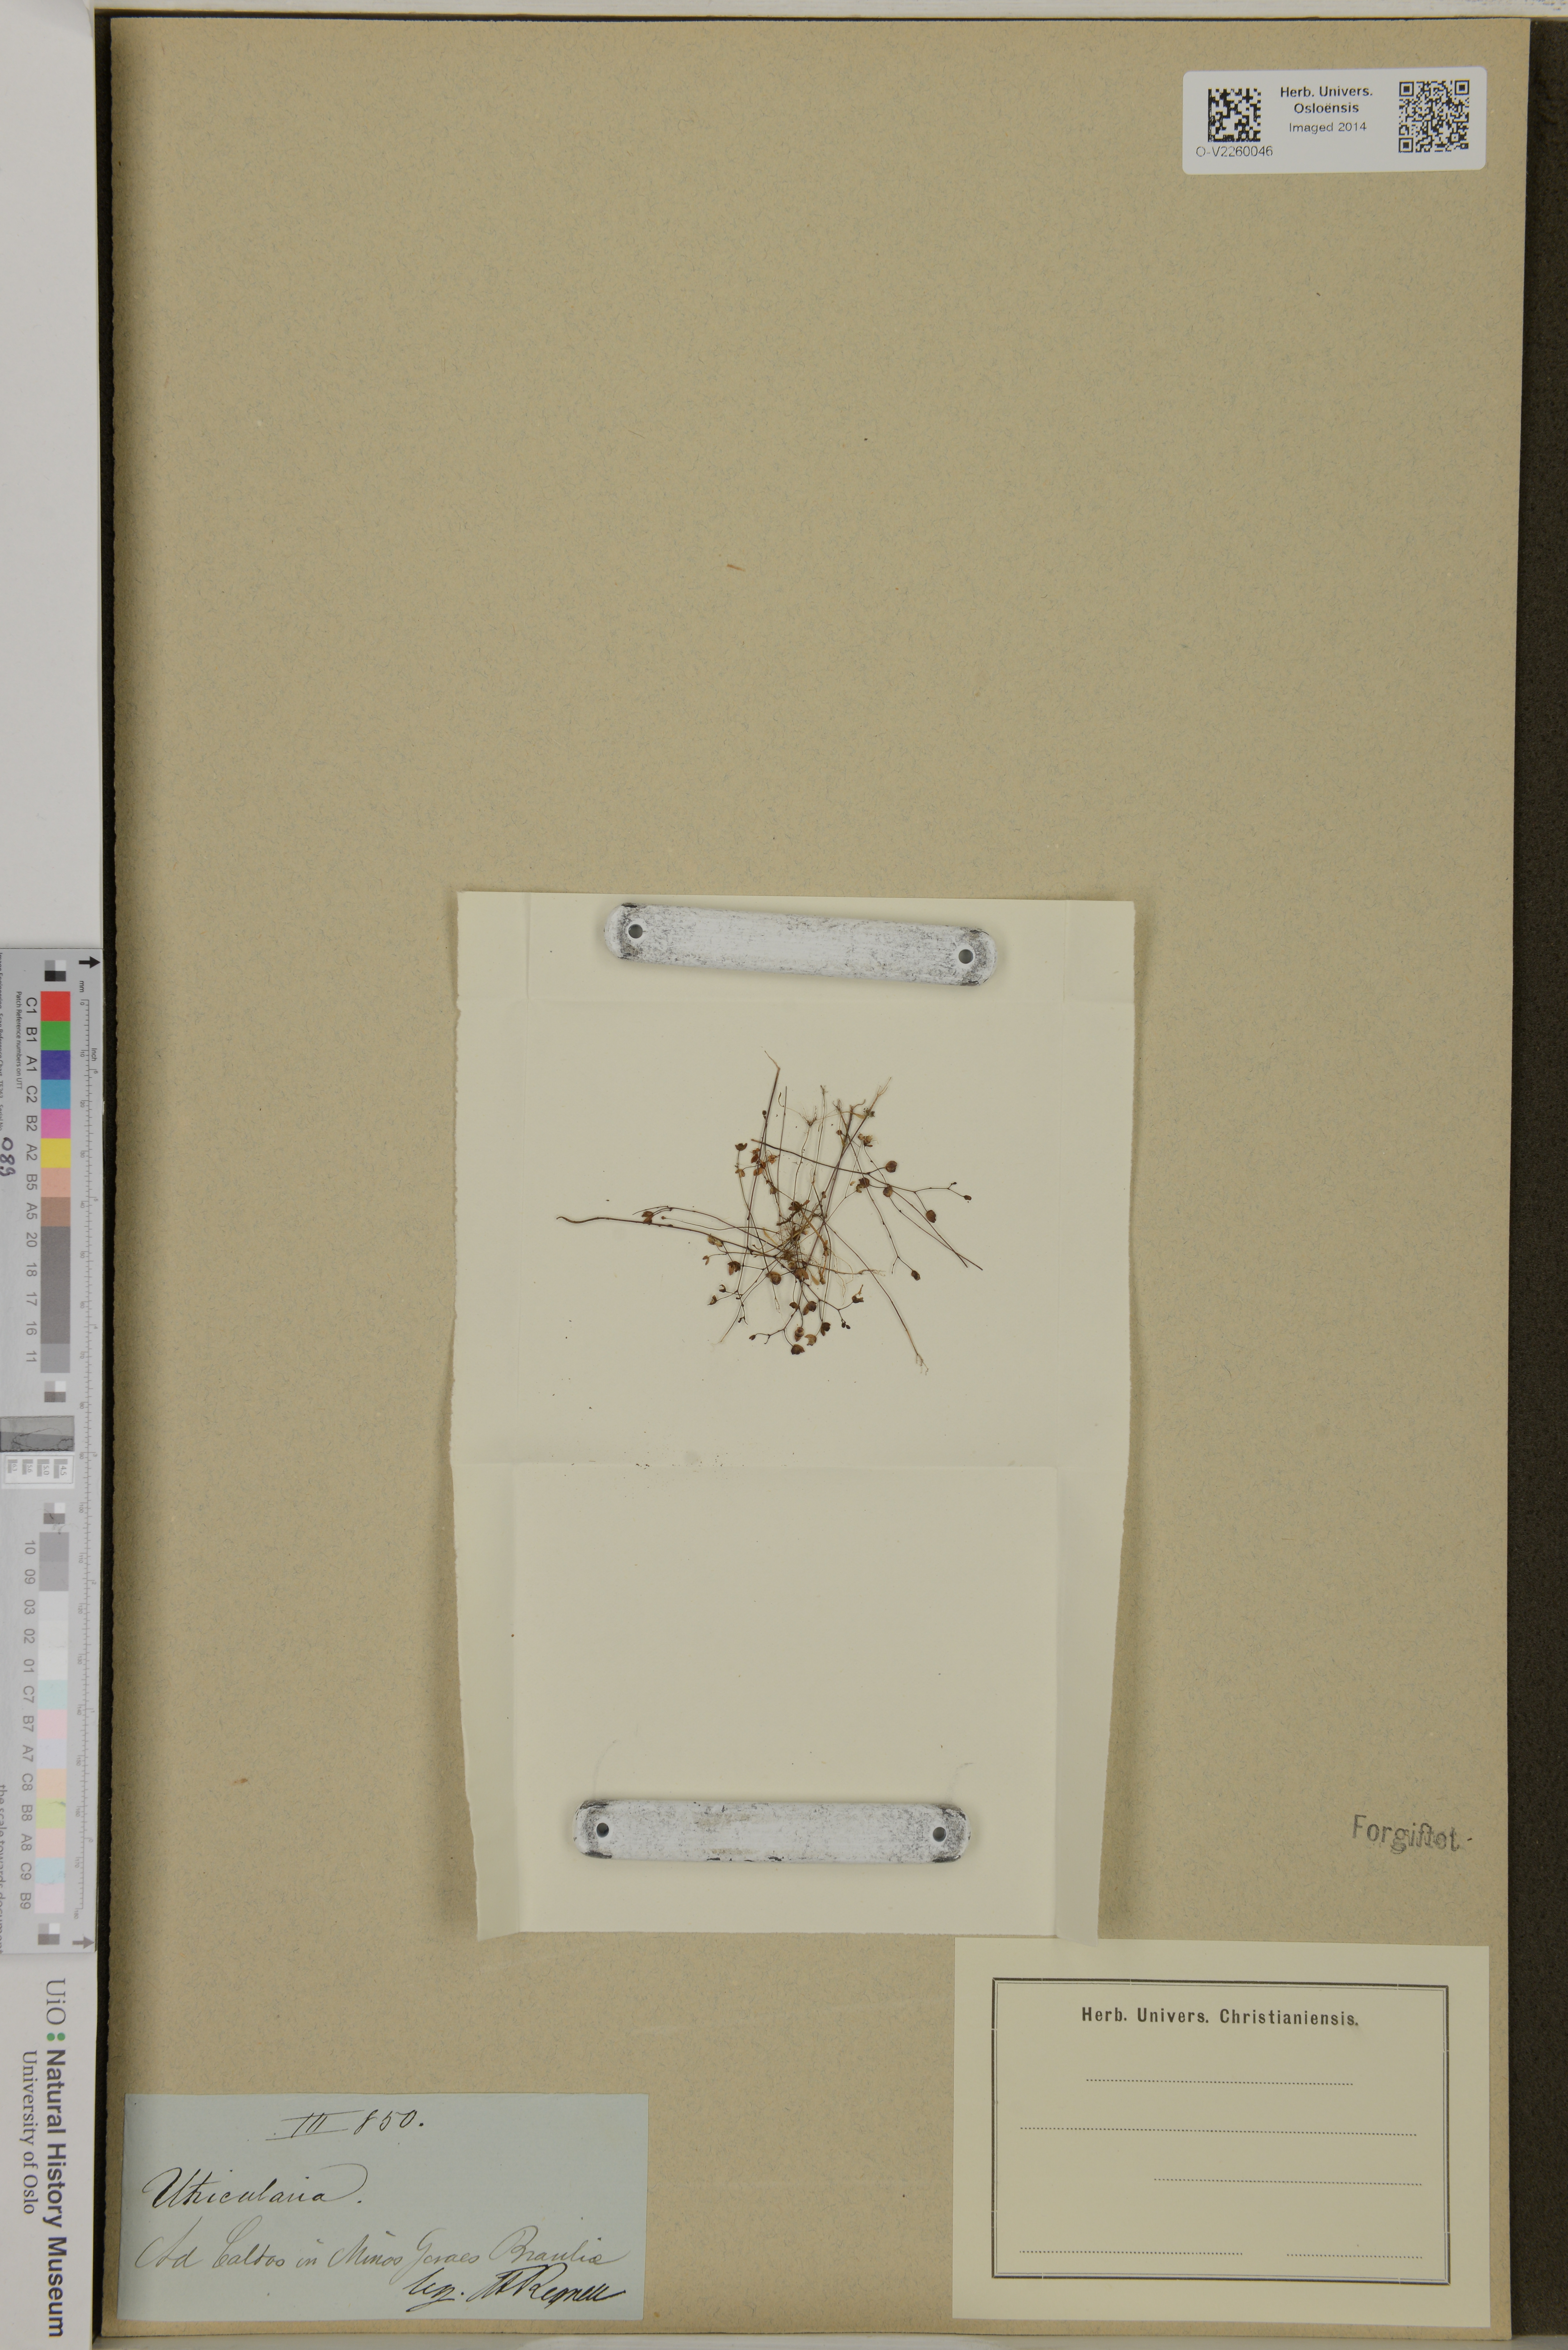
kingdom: Plantae
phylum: Tracheophyta
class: Magnoliopsida
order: Lamiales
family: Lentibulariaceae
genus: Utricularia
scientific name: Utricularia
